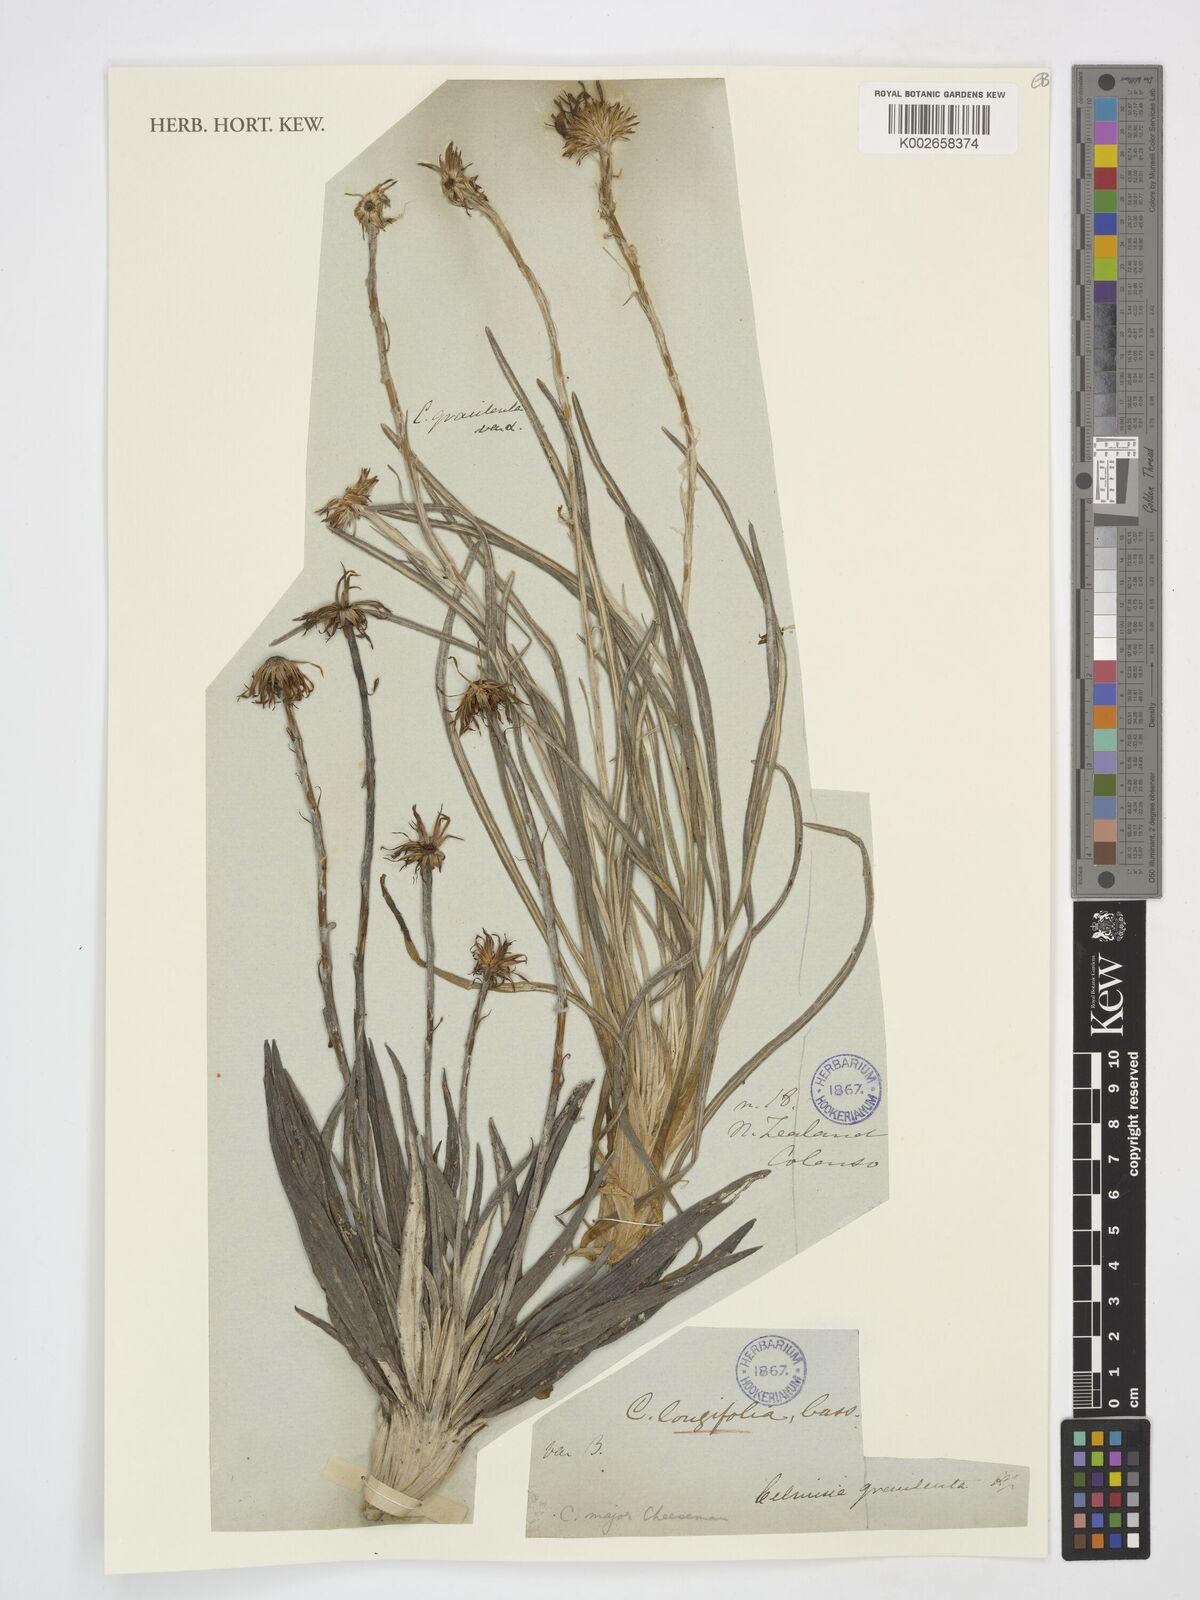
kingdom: Plantae
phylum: Tracheophyta
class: Magnoliopsida
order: Asterales
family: Asteraceae
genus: Celmisia
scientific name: Celmisia gracilenta
